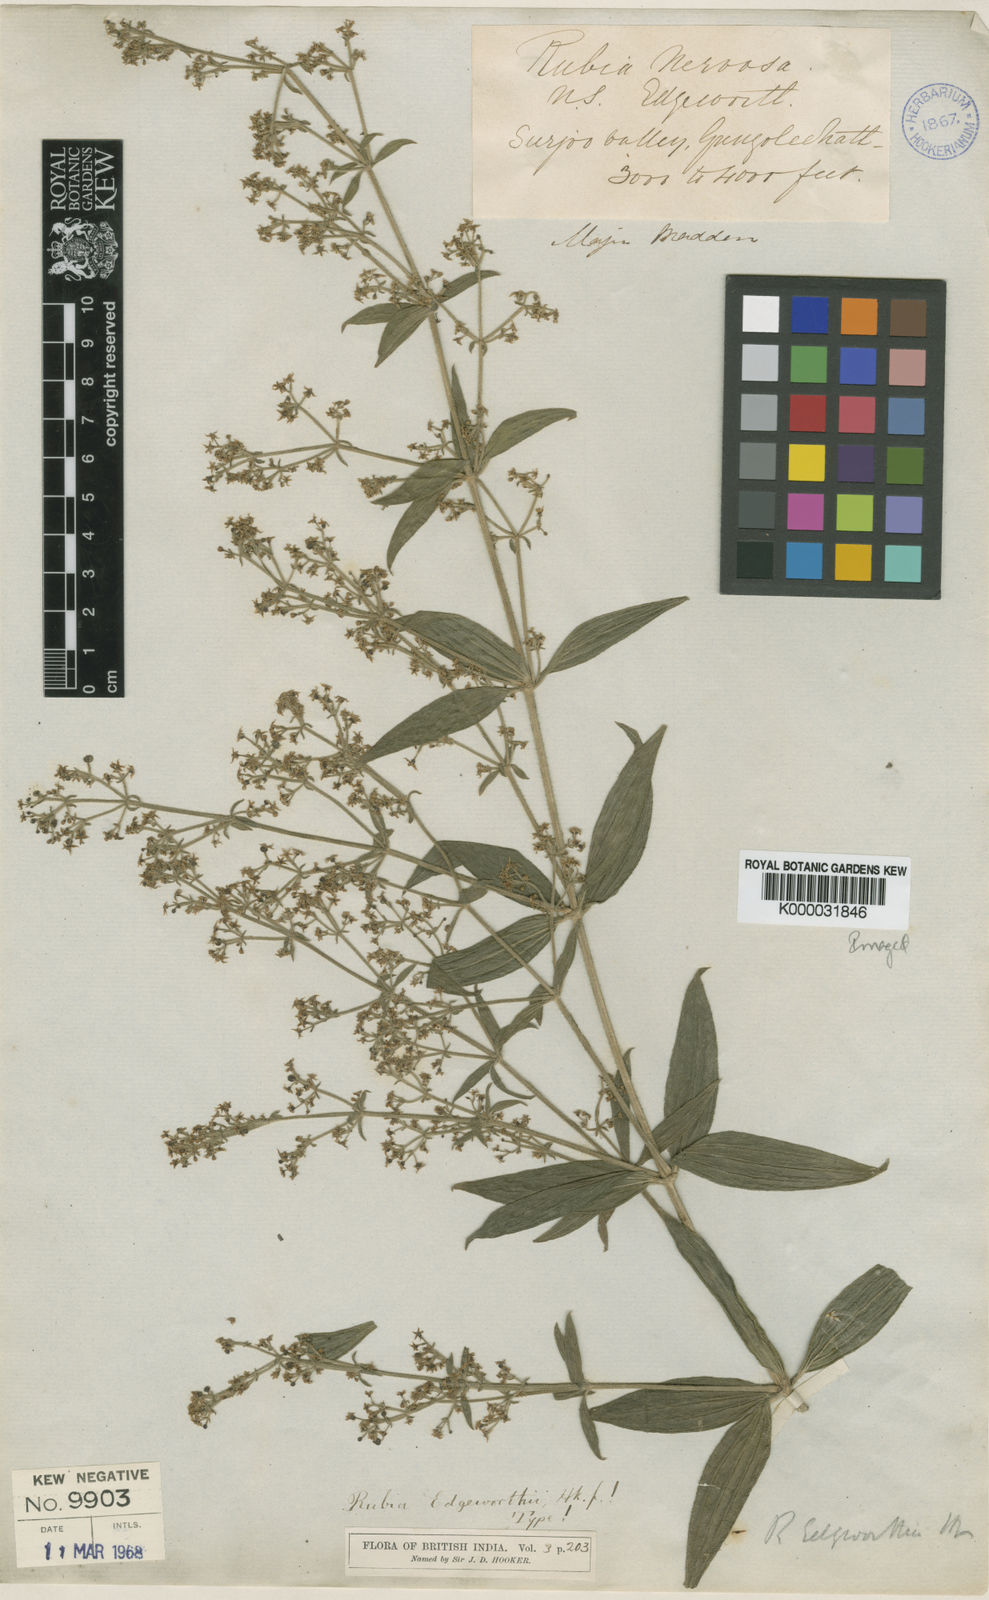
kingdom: Plantae
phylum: Tracheophyta
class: Magnoliopsida
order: Gentianales
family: Rubiaceae
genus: Rubia
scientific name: Rubia edgeworthii
